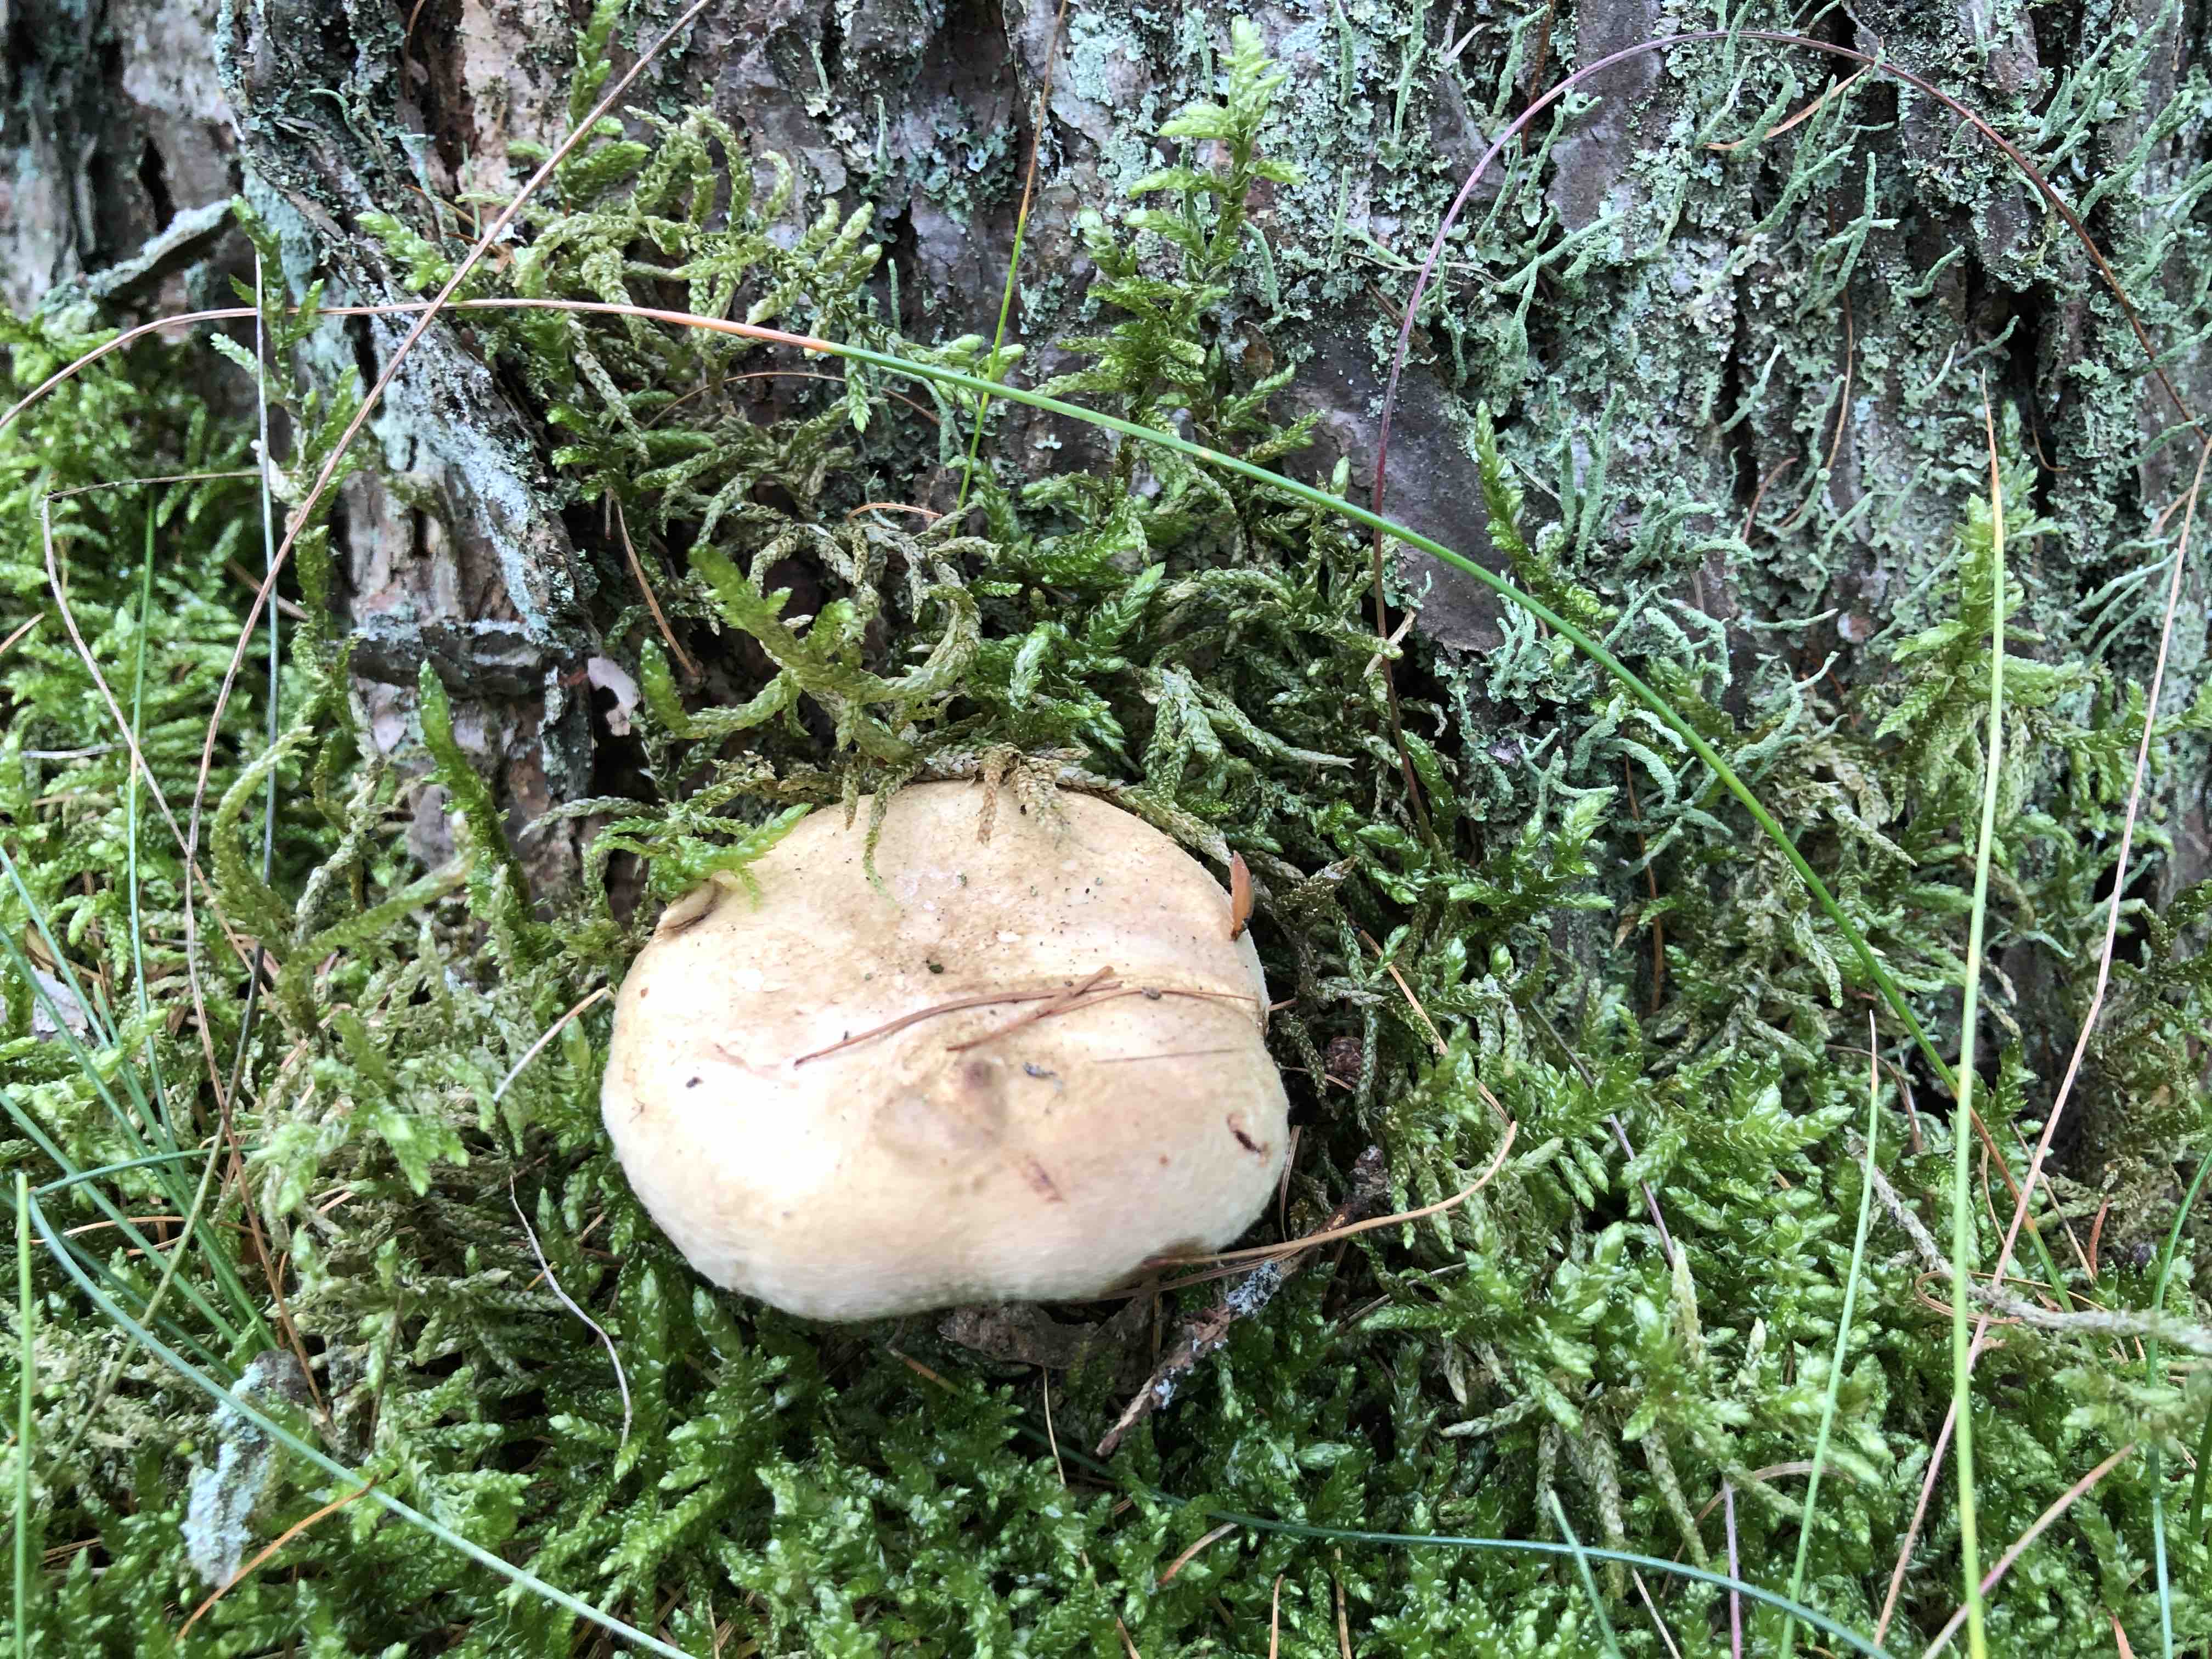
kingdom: Fungi
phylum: Basidiomycota
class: Agaricomycetes
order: Boletales
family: Paxillaceae
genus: Paxillus
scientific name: Paxillus obscurisporus
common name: mahognisporet netbladhat
